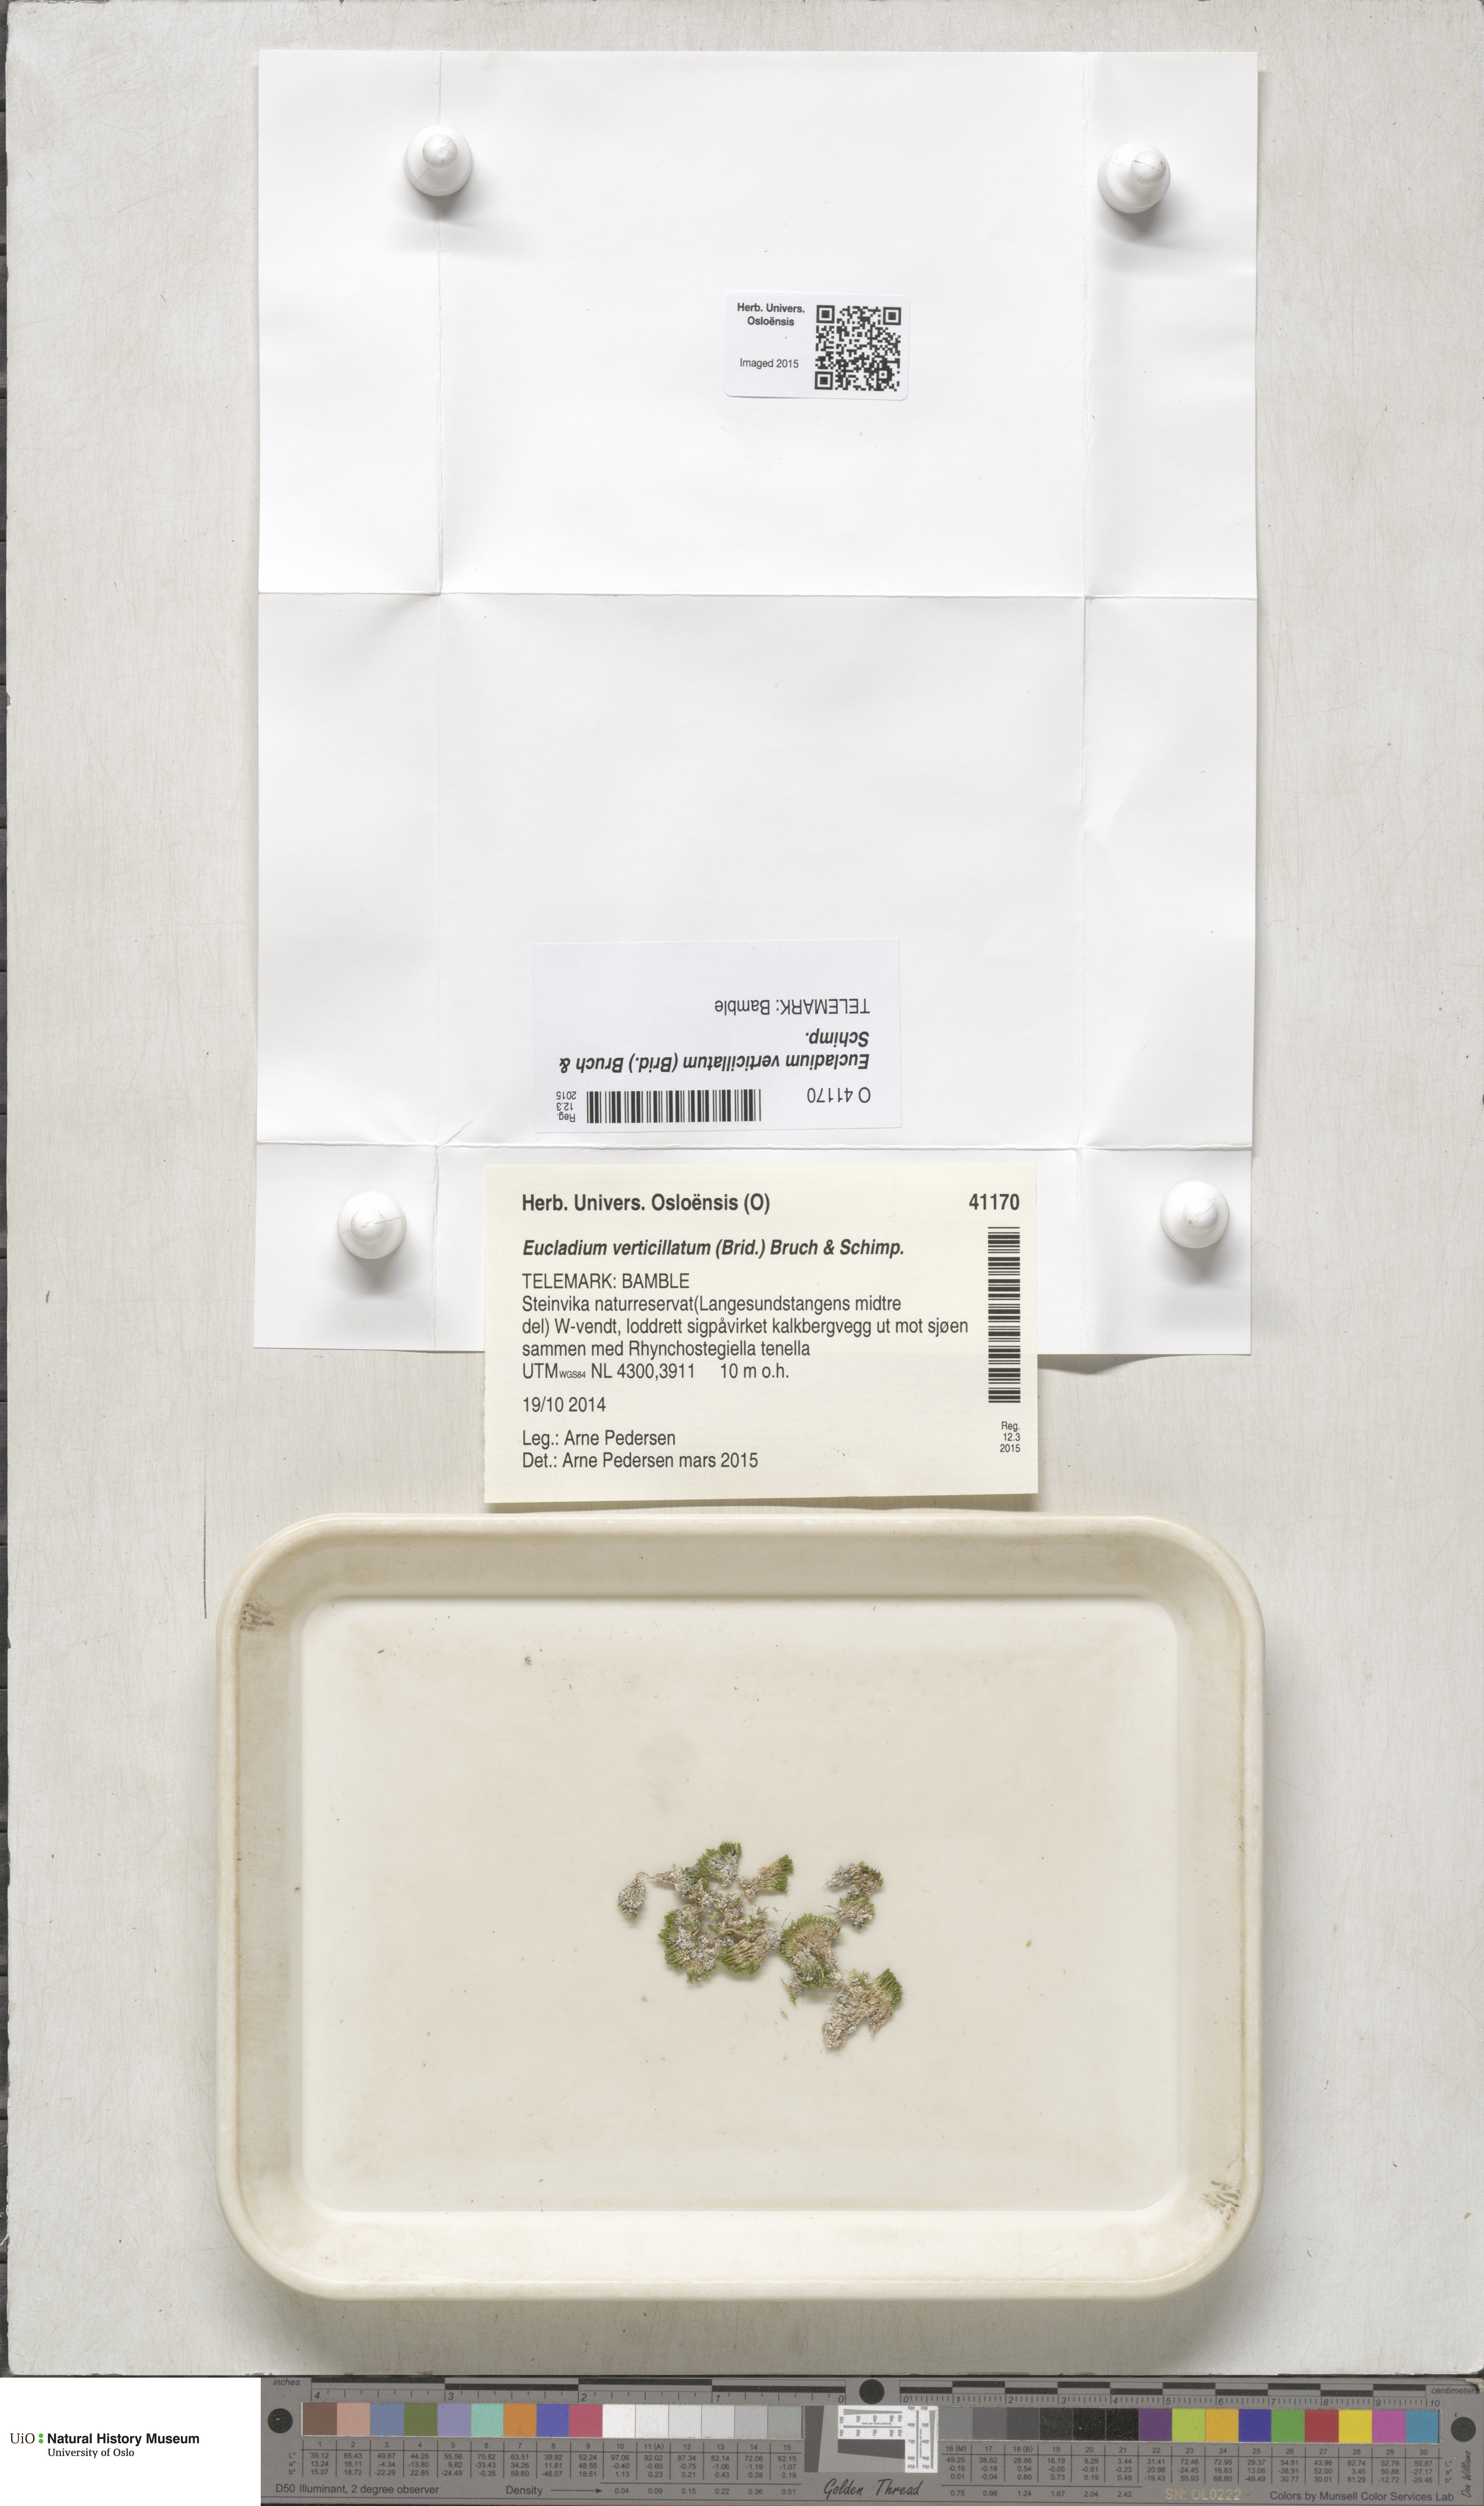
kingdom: Plantae
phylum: Bryophyta
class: Bryopsida
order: Pottiales
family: Pottiaceae
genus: Eucladium
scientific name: Eucladium verticillatum
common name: Whorled tufa-moss
